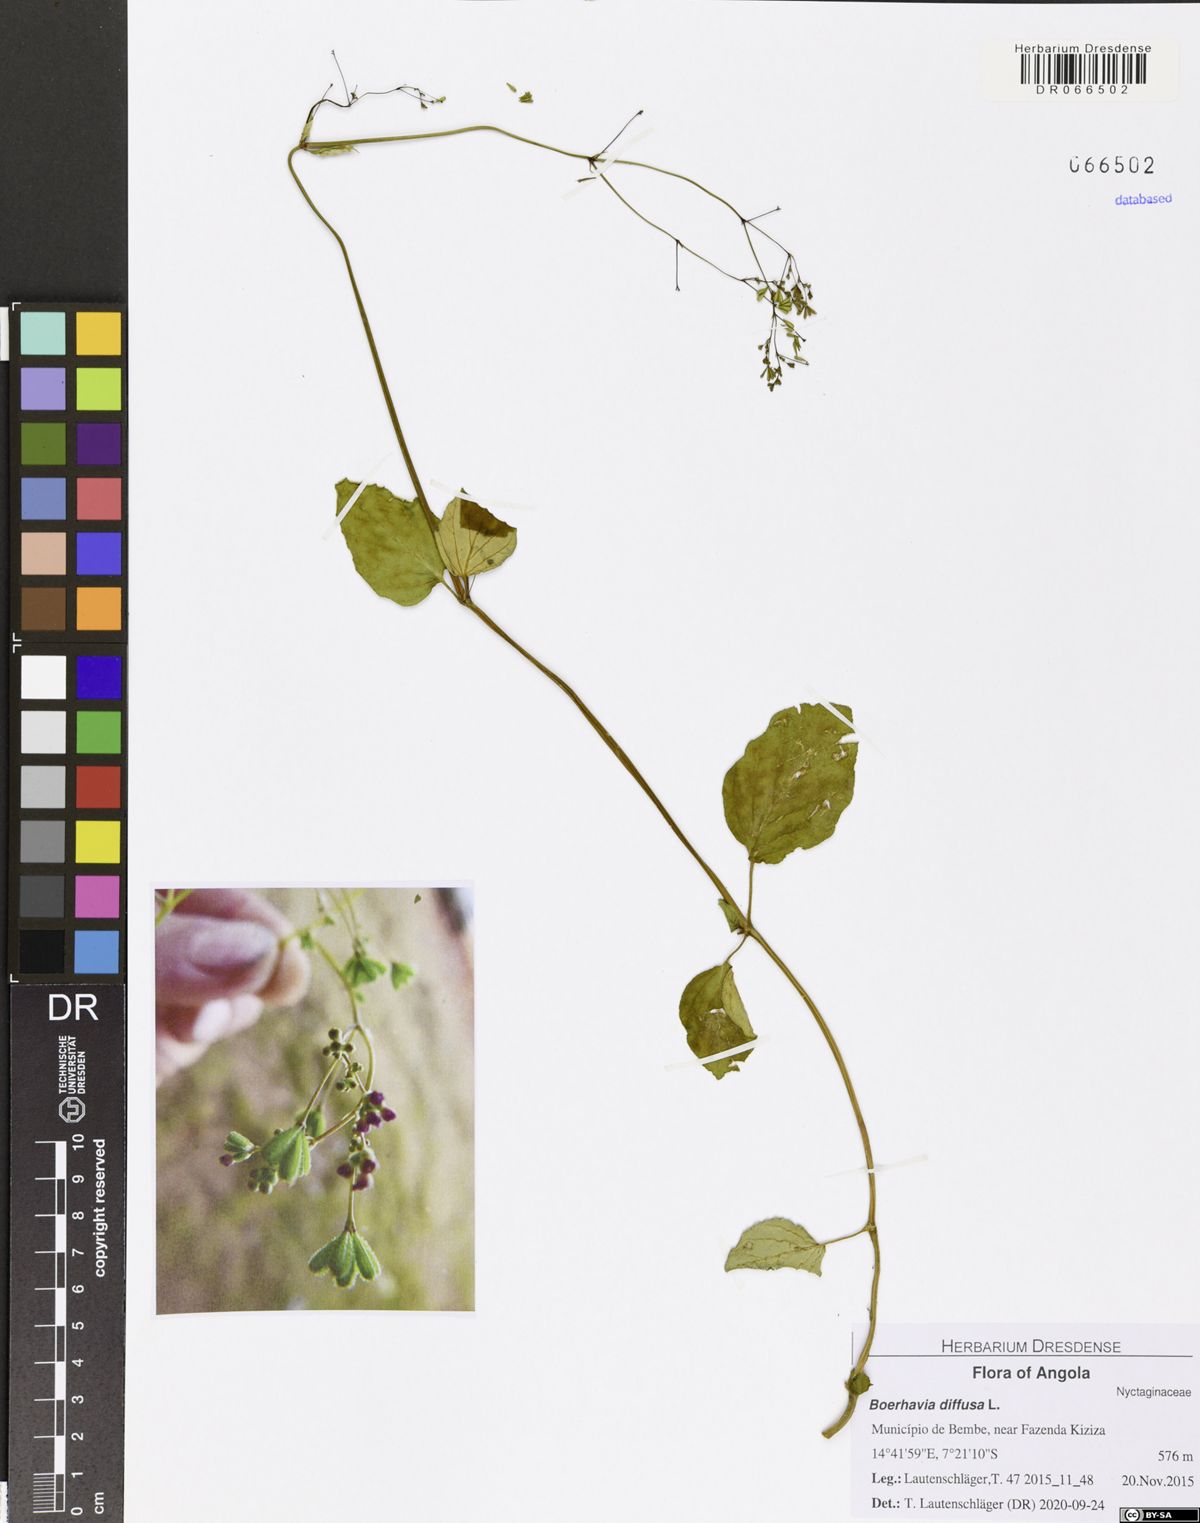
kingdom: Plantae
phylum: Tracheophyta
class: Magnoliopsida
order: Caryophyllales
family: Nyctaginaceae
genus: Boerhavia
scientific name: Boerhavia diffusa
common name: Red spiderling
